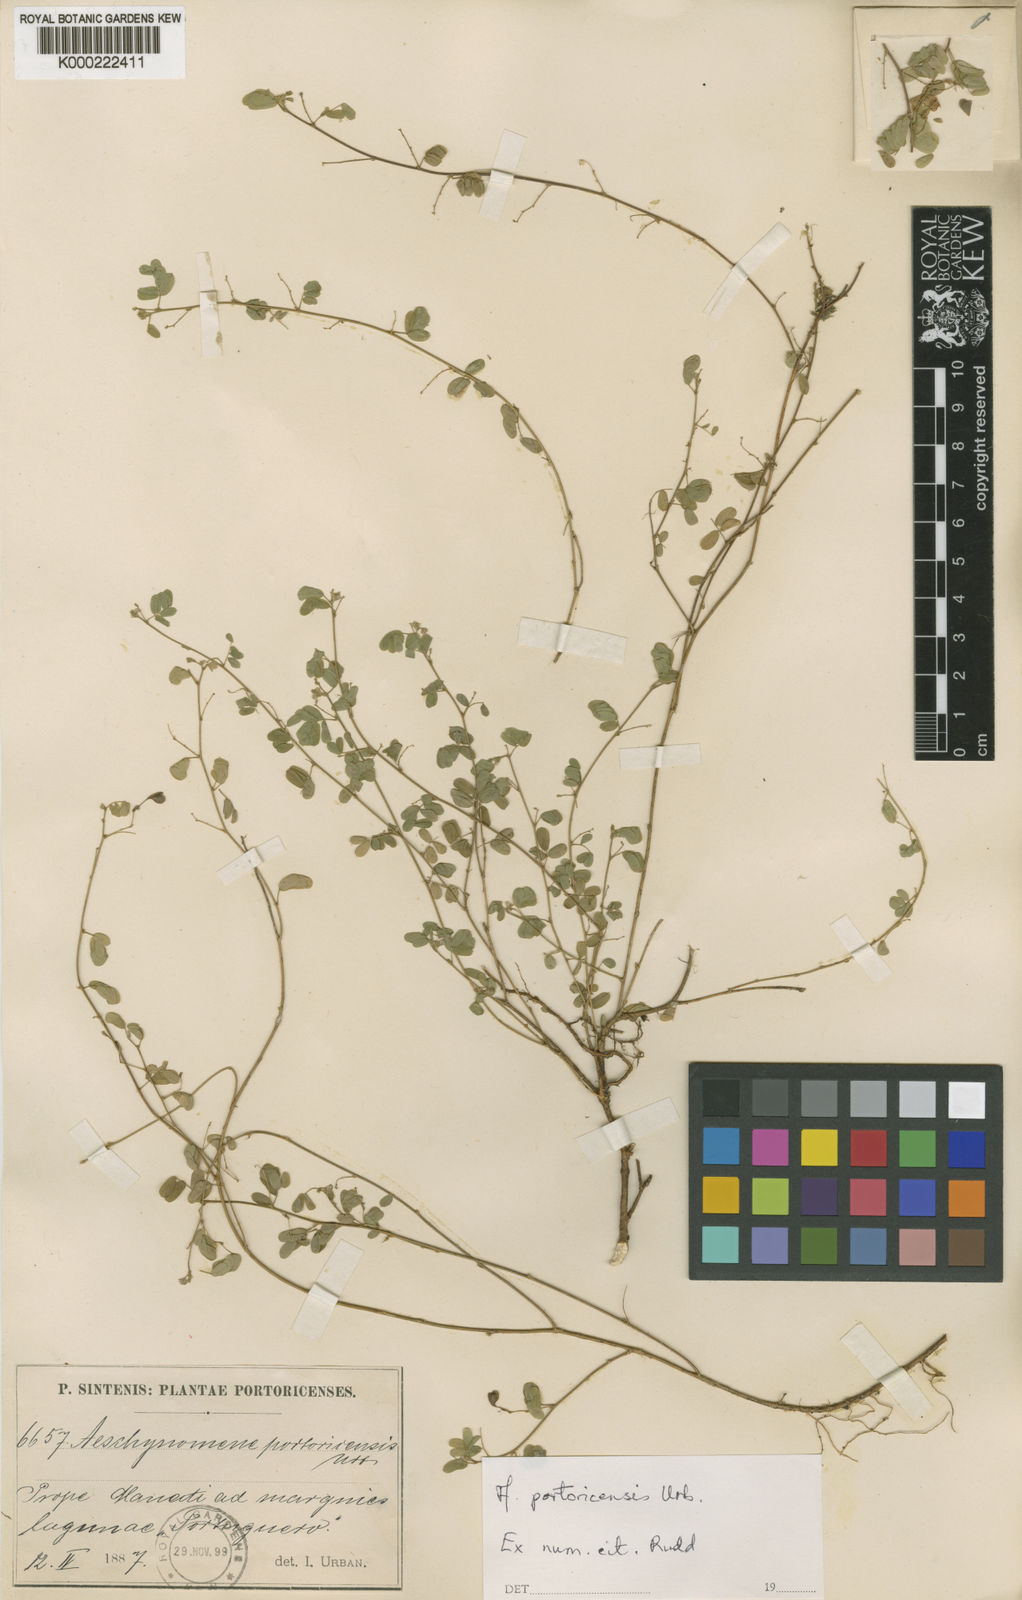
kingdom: Plantae
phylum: Tracheophyta
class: Magnoliopsida
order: Fabales
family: Fabaceae
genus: Ctenodon
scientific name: Ctenodon gracilis
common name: Puerto rico jointvetch
